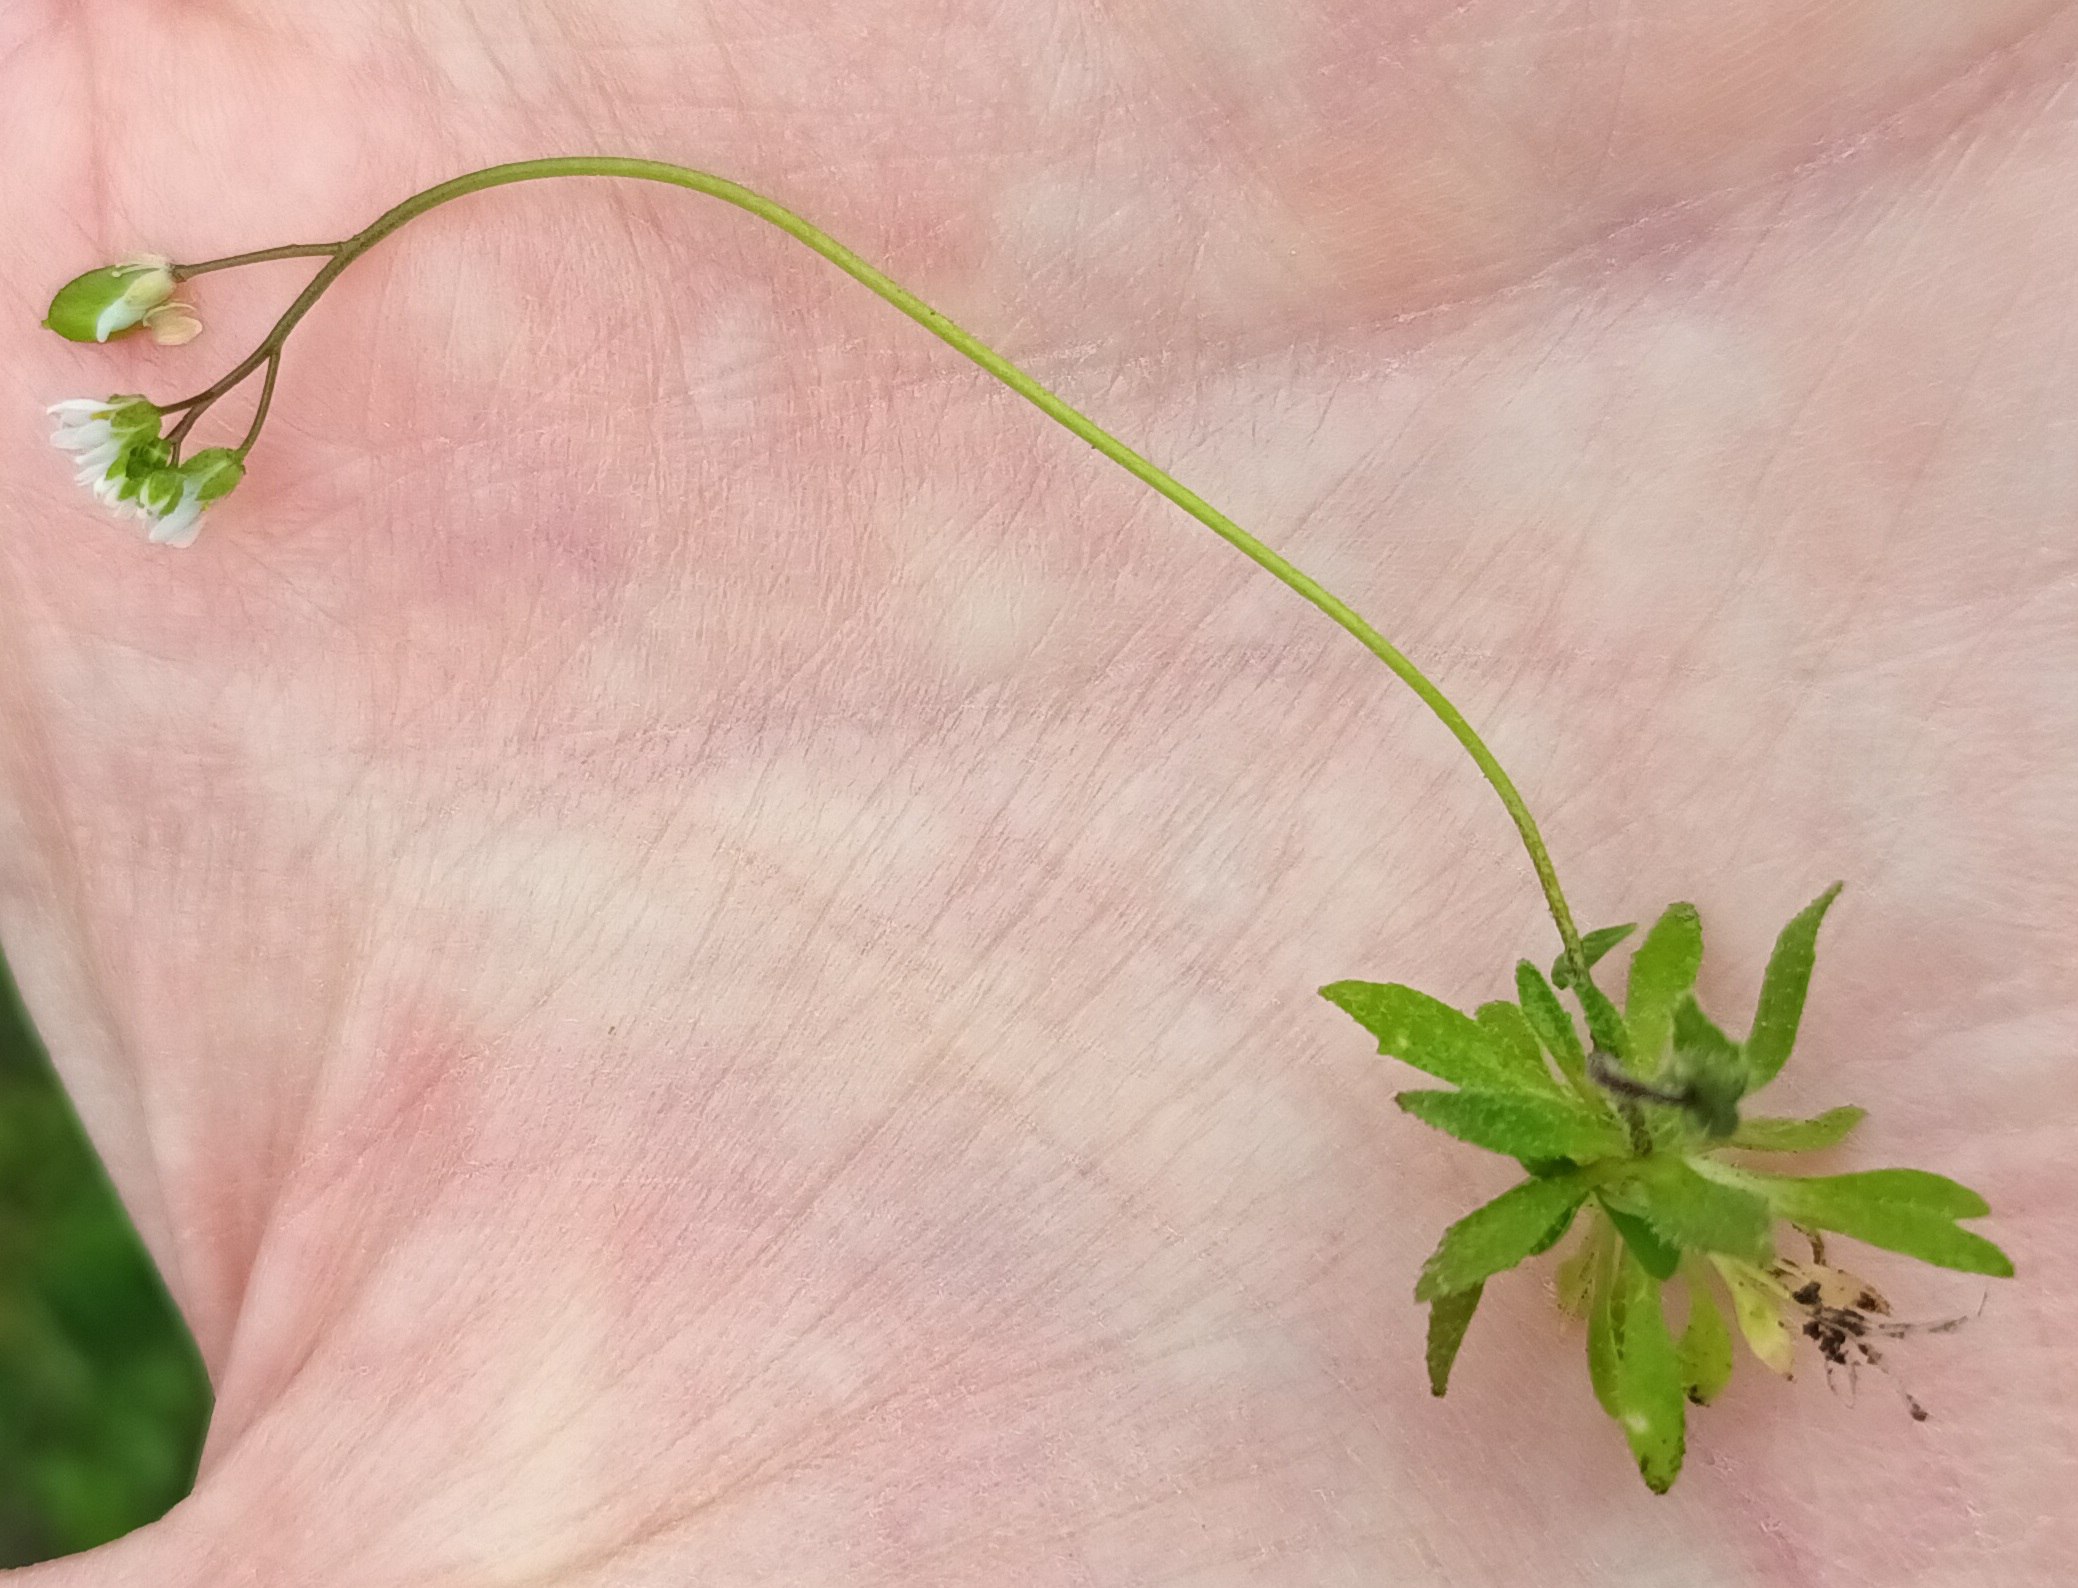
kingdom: Plantae
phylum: Tracheophyta
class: Magnoliopsida
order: Brassicales
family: Brassicaceae
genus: Draba
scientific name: Draba verna
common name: Vår-gæslingeblomst
